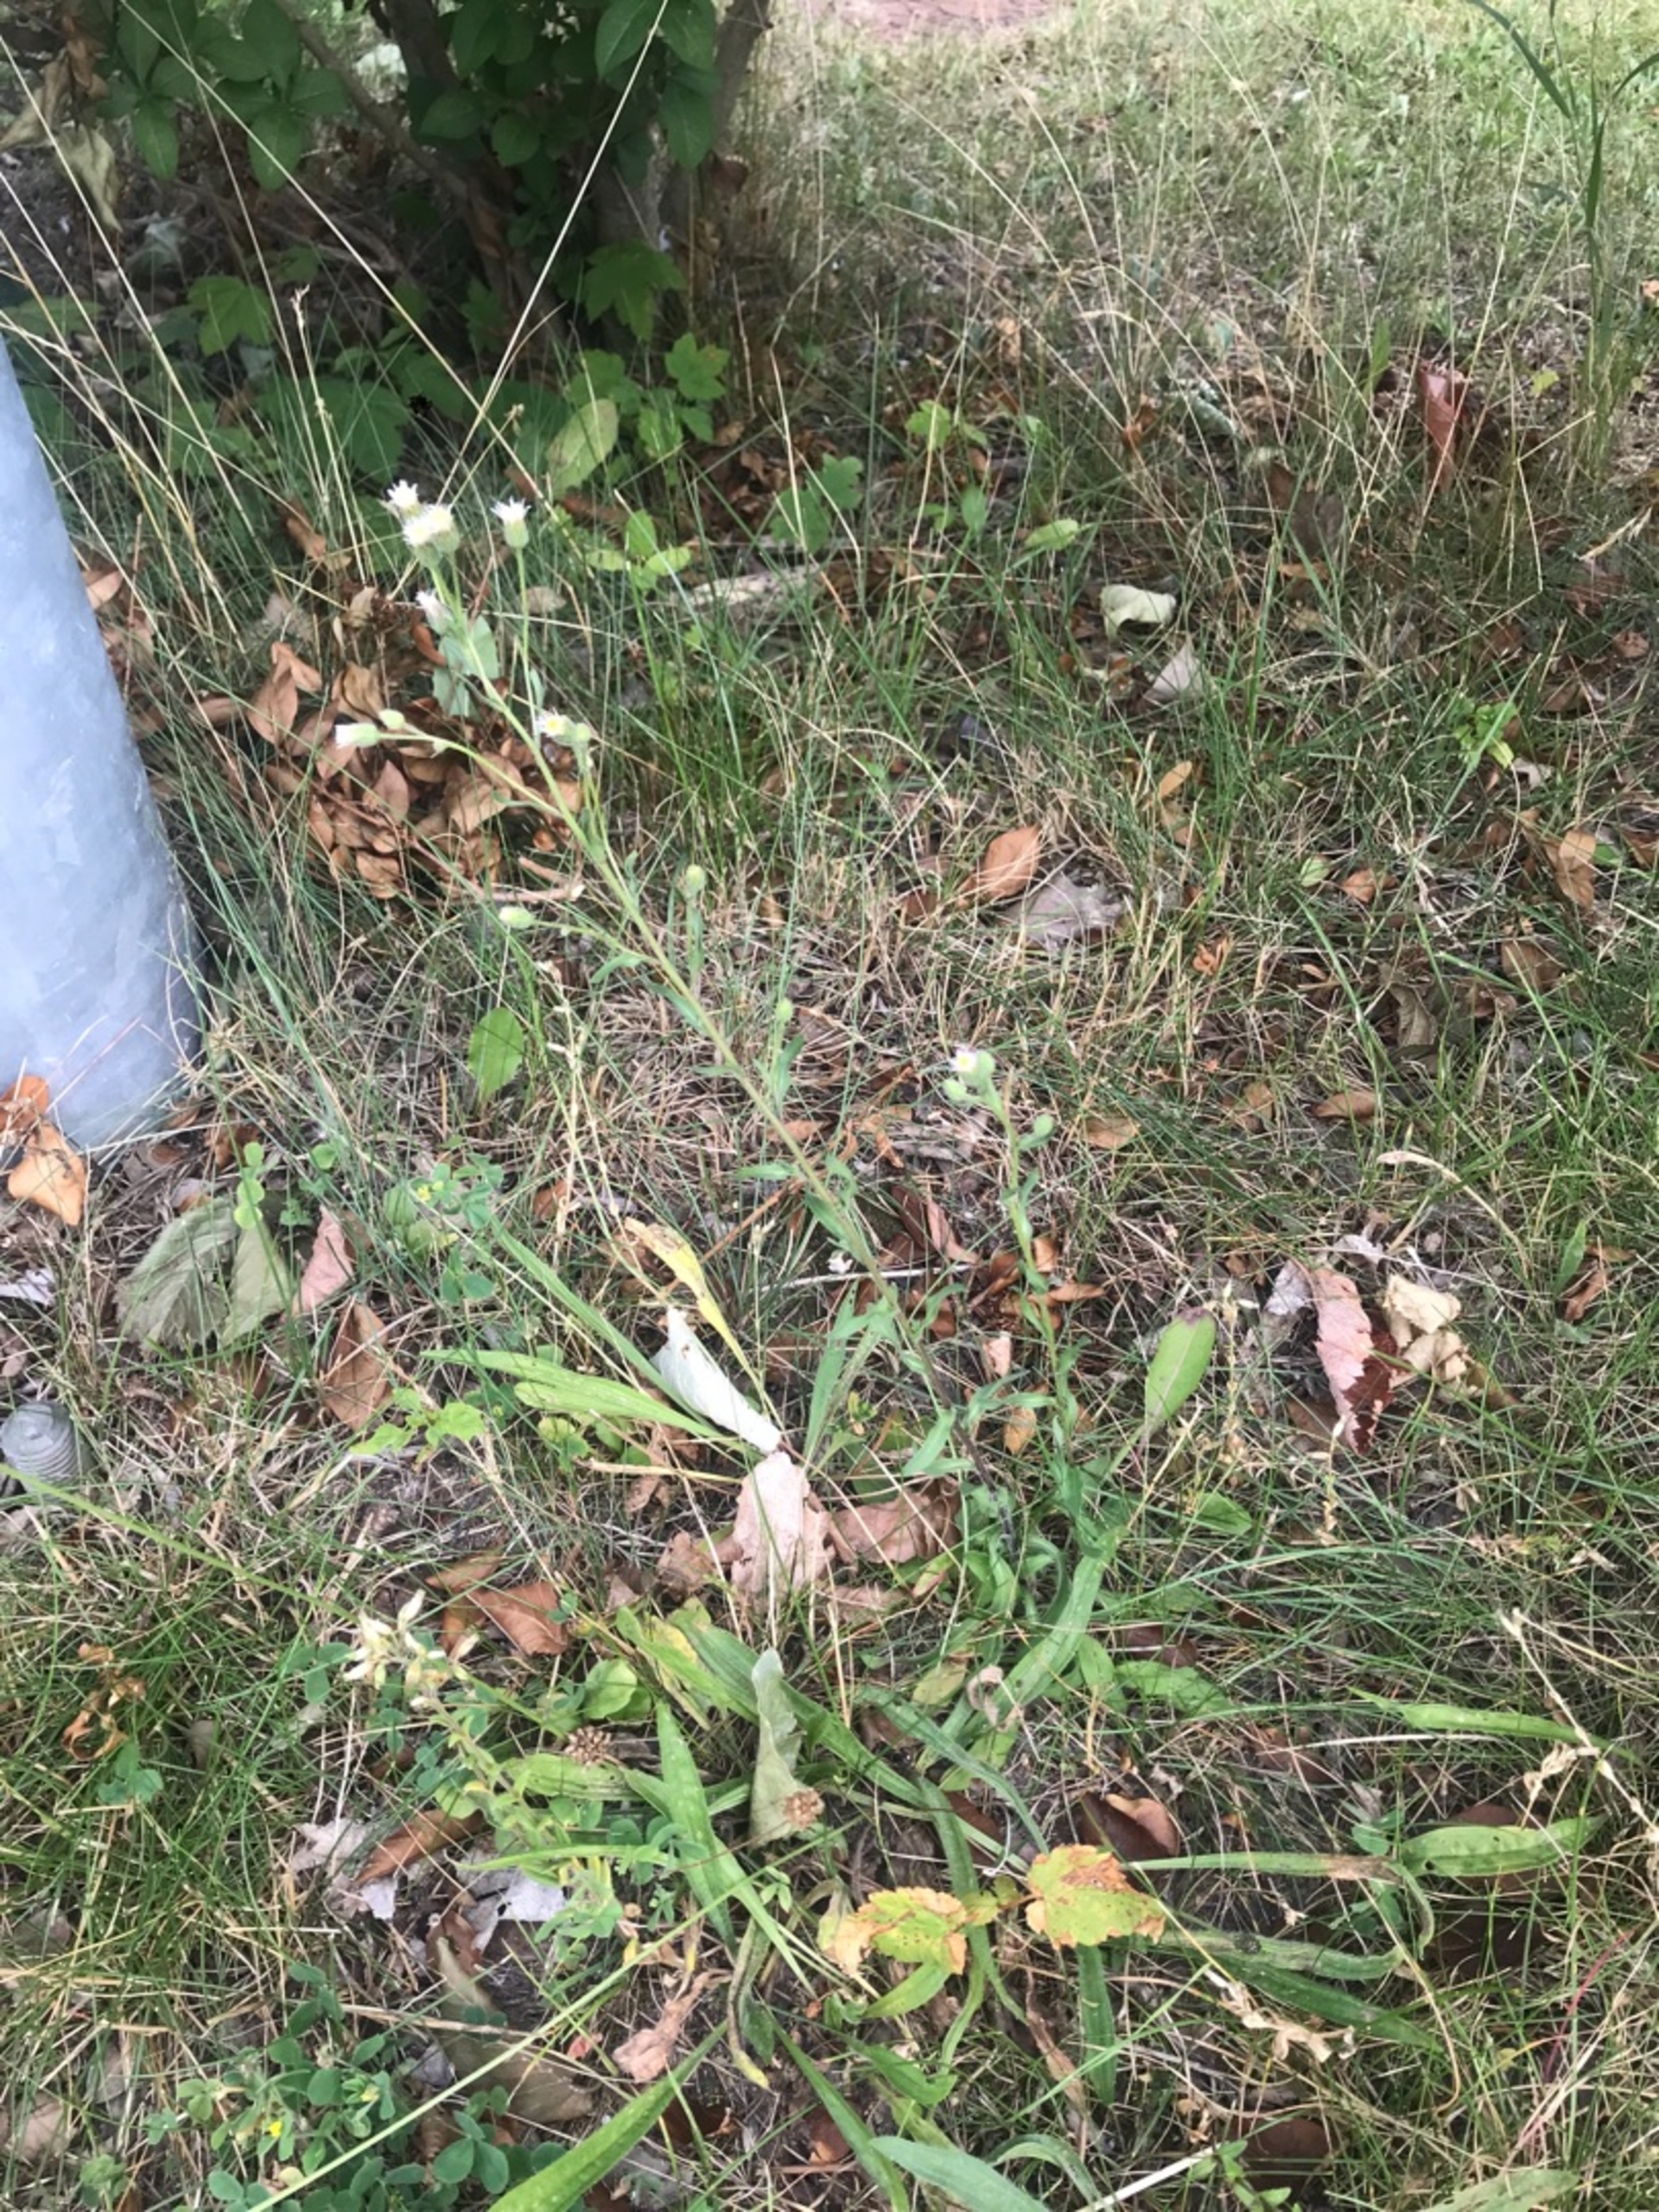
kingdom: Plantae
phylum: Tracheophyta
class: Magnoliopsida
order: Asterales
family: Asteraceae
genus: Erigeron
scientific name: Erigeron muralis
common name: Vreden bakkestjerne
